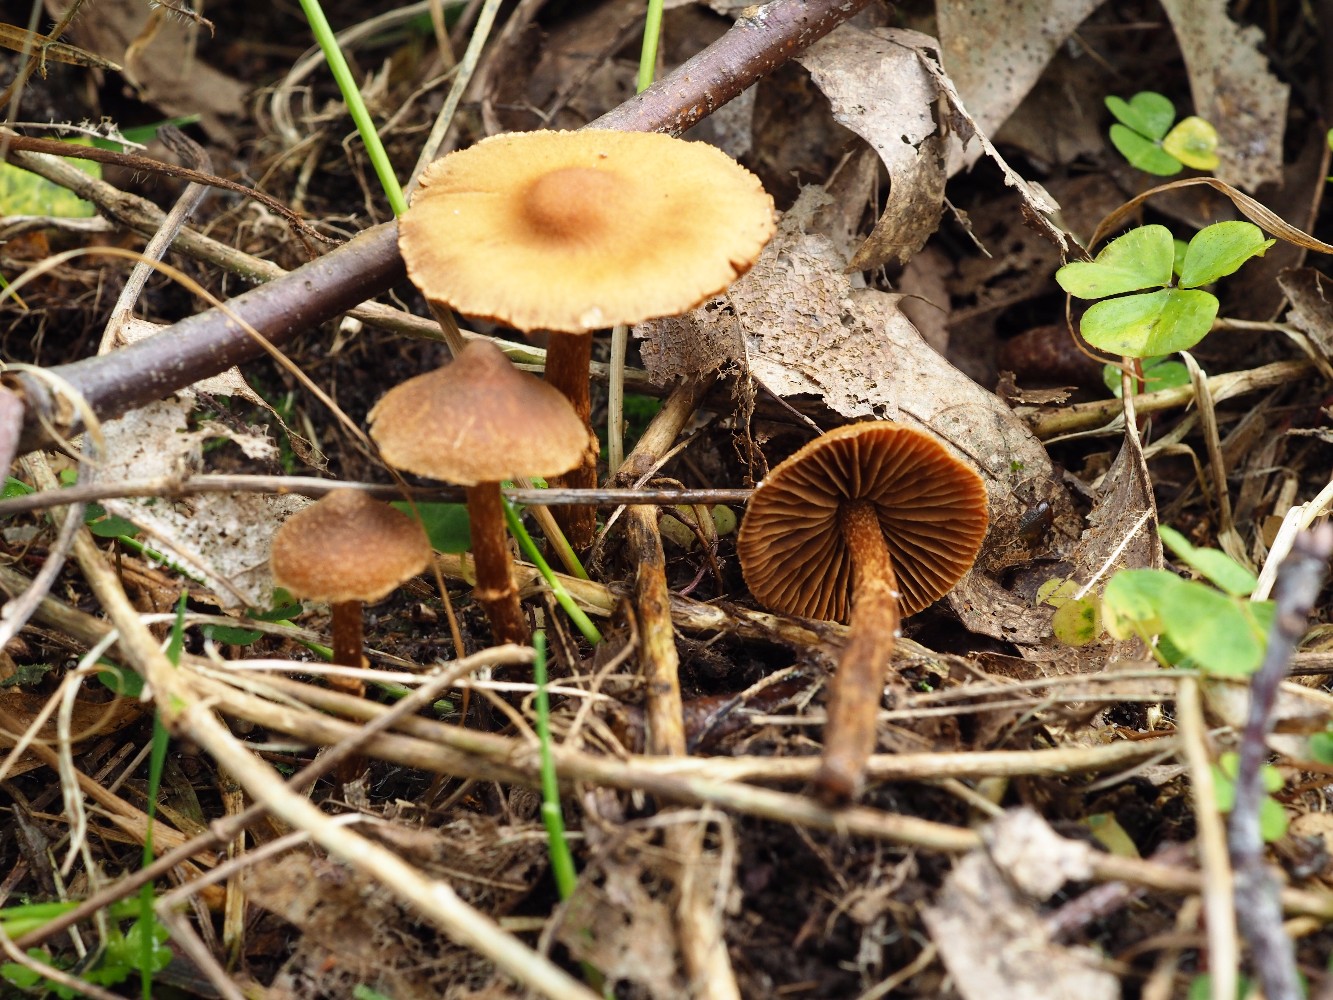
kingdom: Fungi
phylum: Basidiomycota
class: Agaricomycetes
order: Agaricales
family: Cortinariaceae
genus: Cortinarius
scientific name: Cortinarius castaneopallidus
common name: bronzetrævlet slørhat
